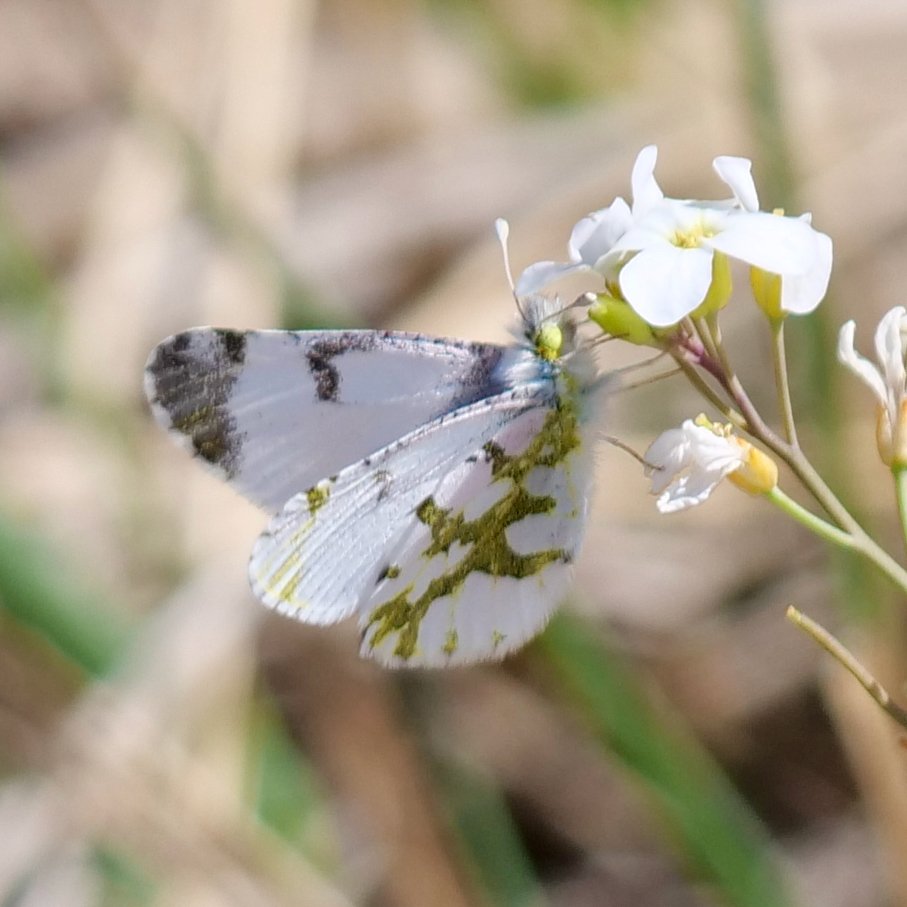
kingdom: Animalia
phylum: Arthropoda
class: Insecta
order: Lepidoptera
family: Pieridae
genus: Euchloe
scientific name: Euchloe olympia
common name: Olympia Marble
